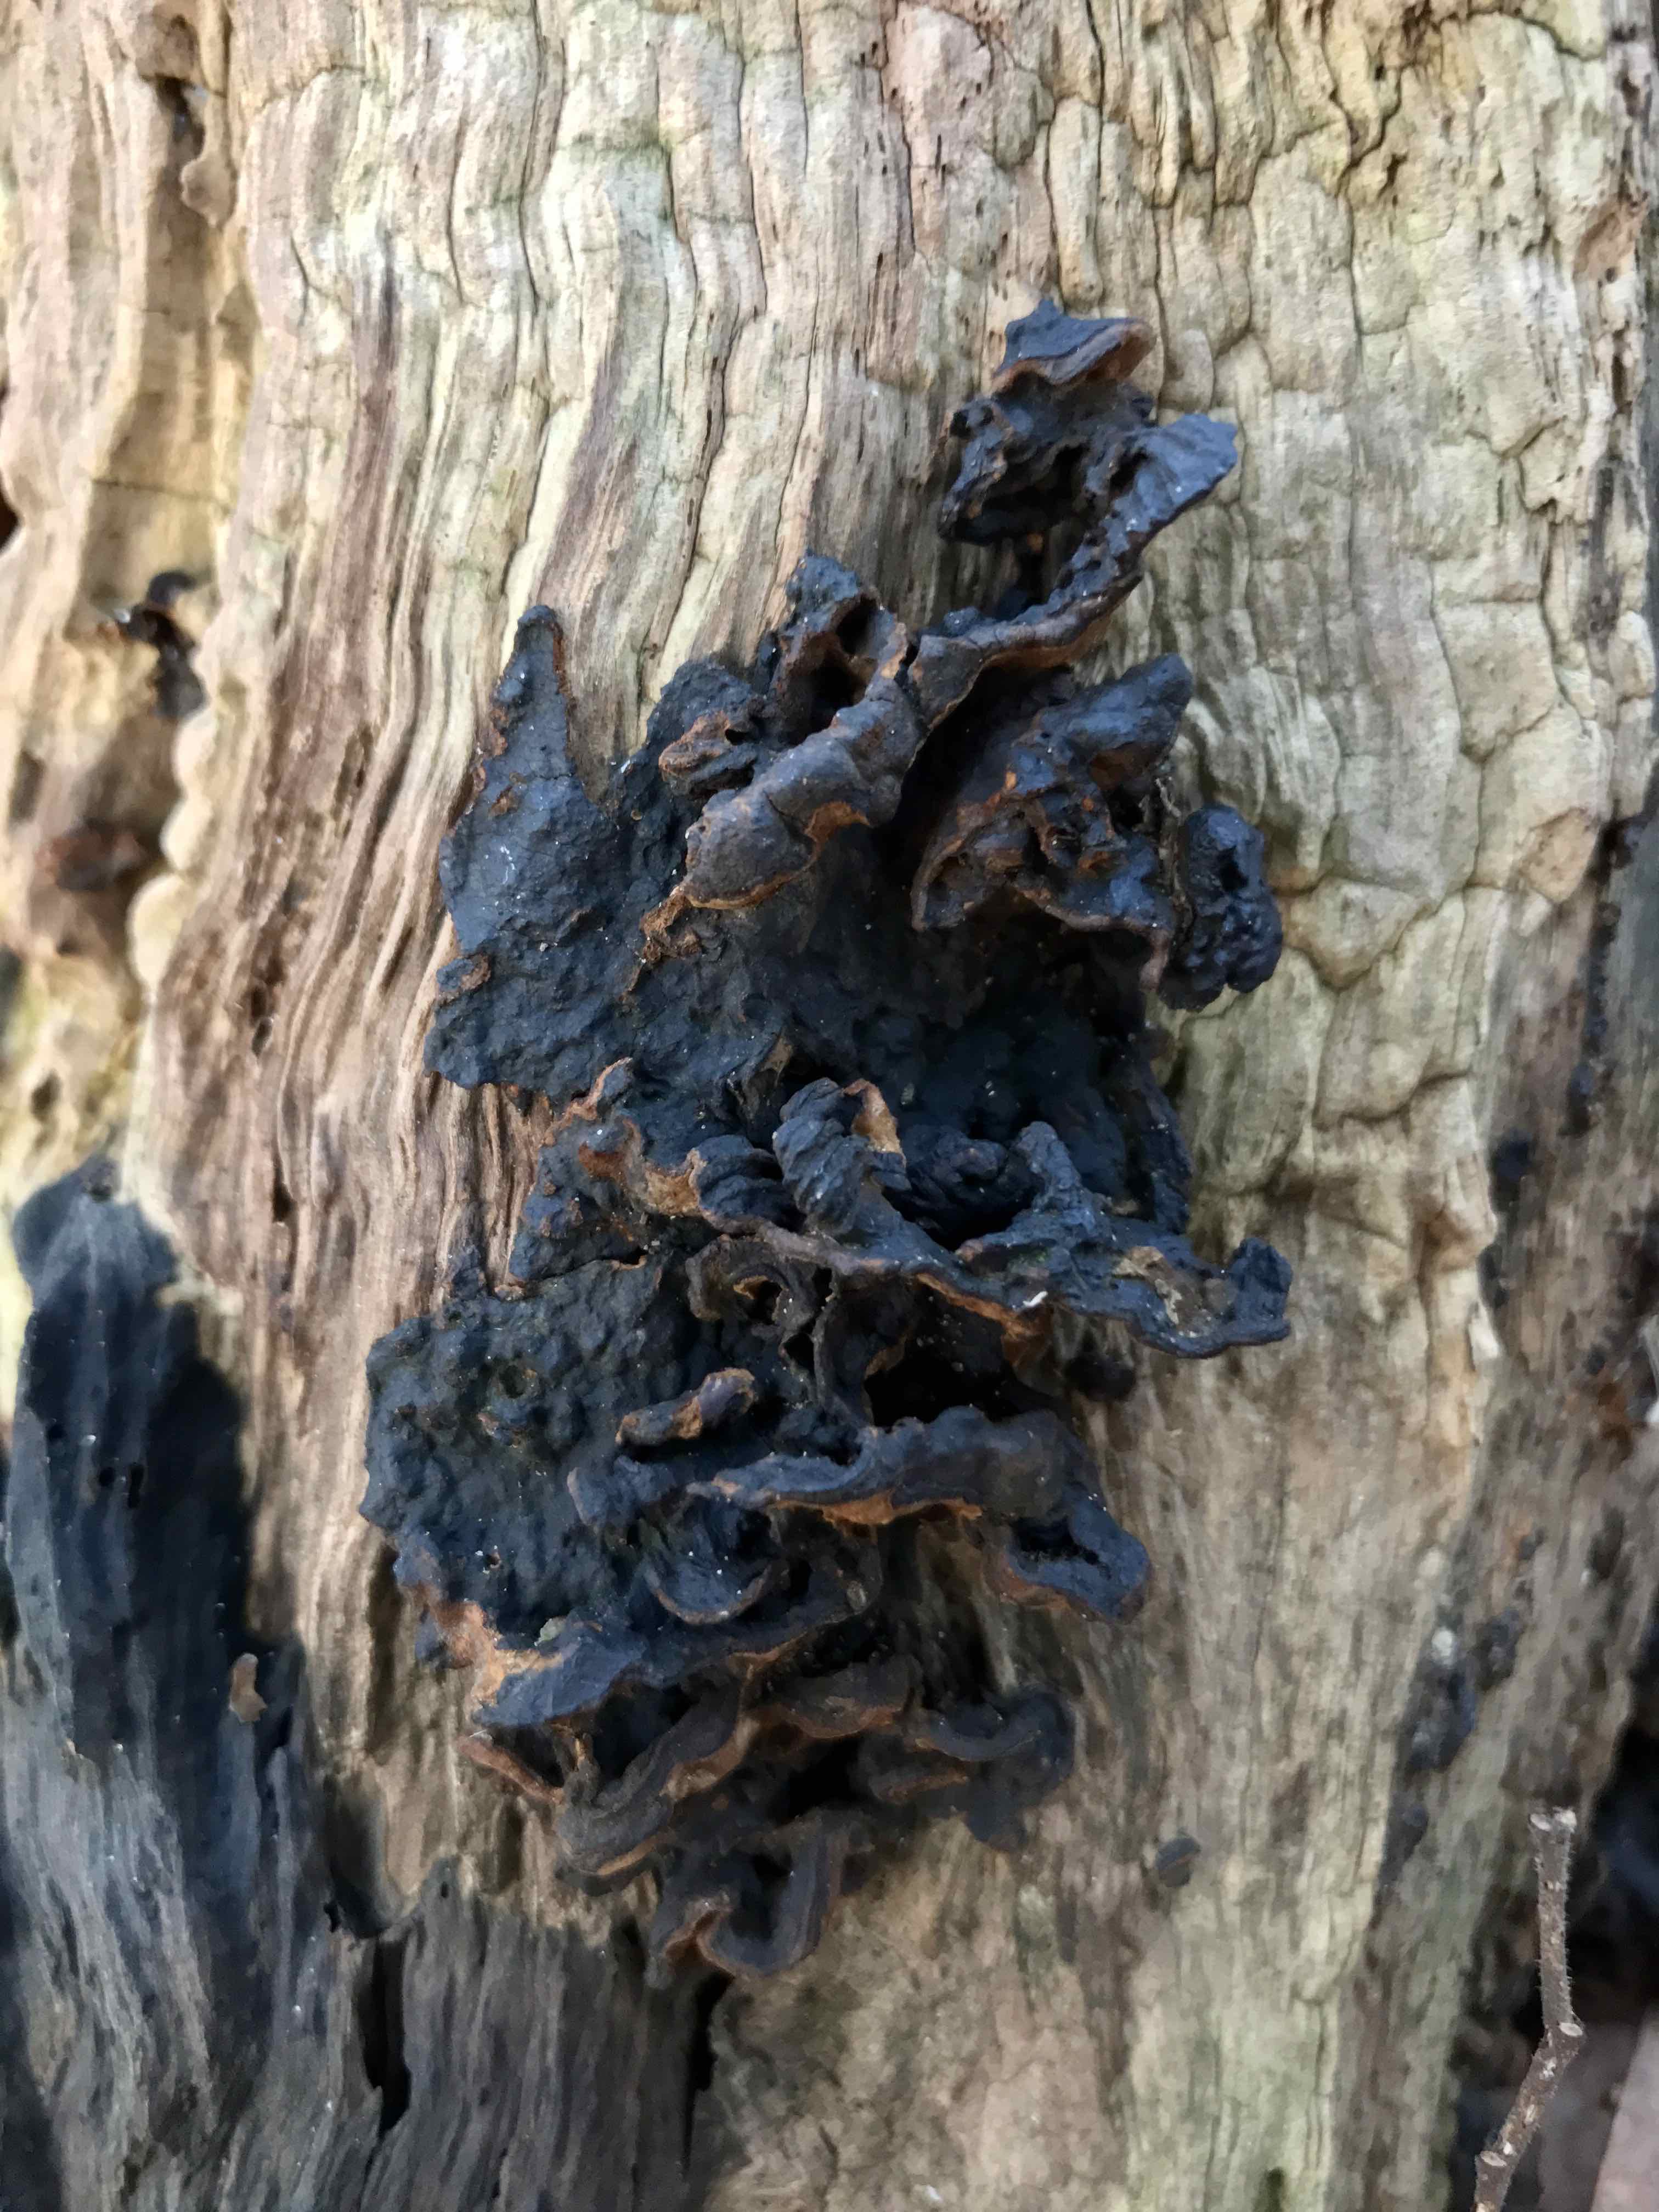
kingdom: Fungi
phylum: Basidiomycota
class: Agaricomycetes
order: Hymenochaetales
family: Hymenochaetaceae
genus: Hymenochaete
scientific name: Hymenochaete rubiginosa
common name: stiv ruslædersvamp
